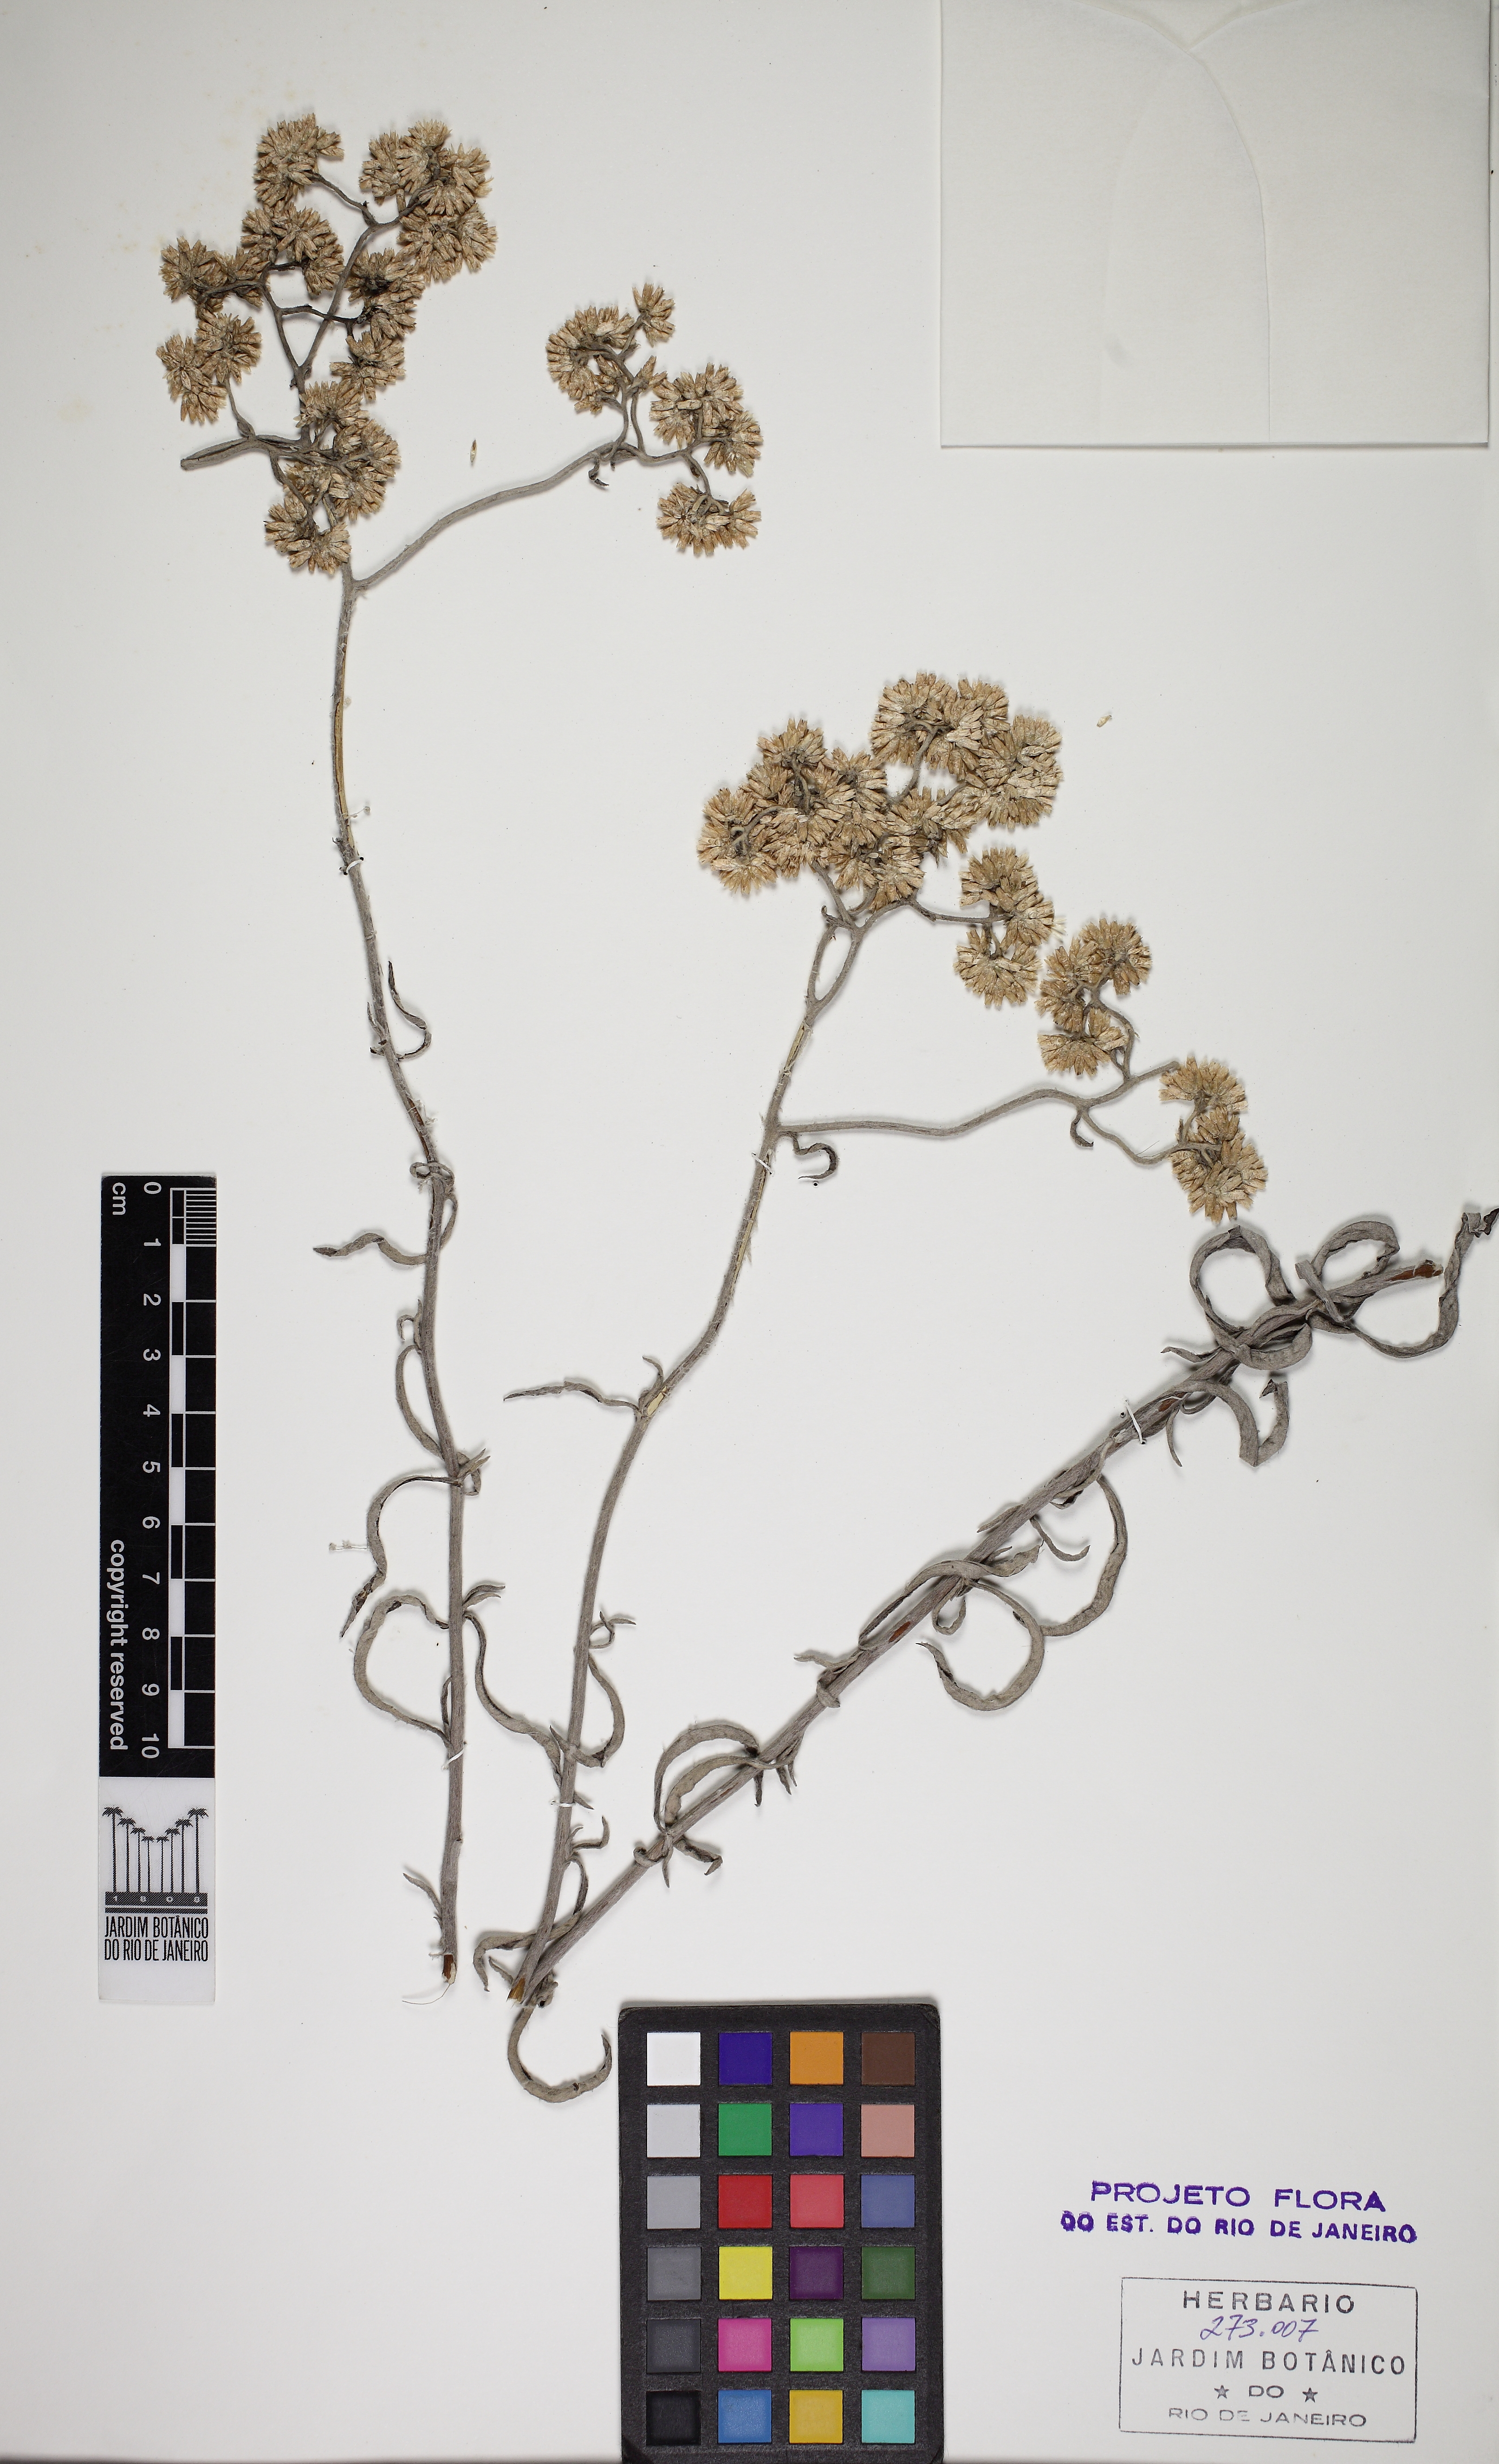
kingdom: Plantae
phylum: Tracheophyta
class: Magnoliopsida
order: Asterales
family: Asteraceae
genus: Achyrocline
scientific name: Achyrocline flaccida
